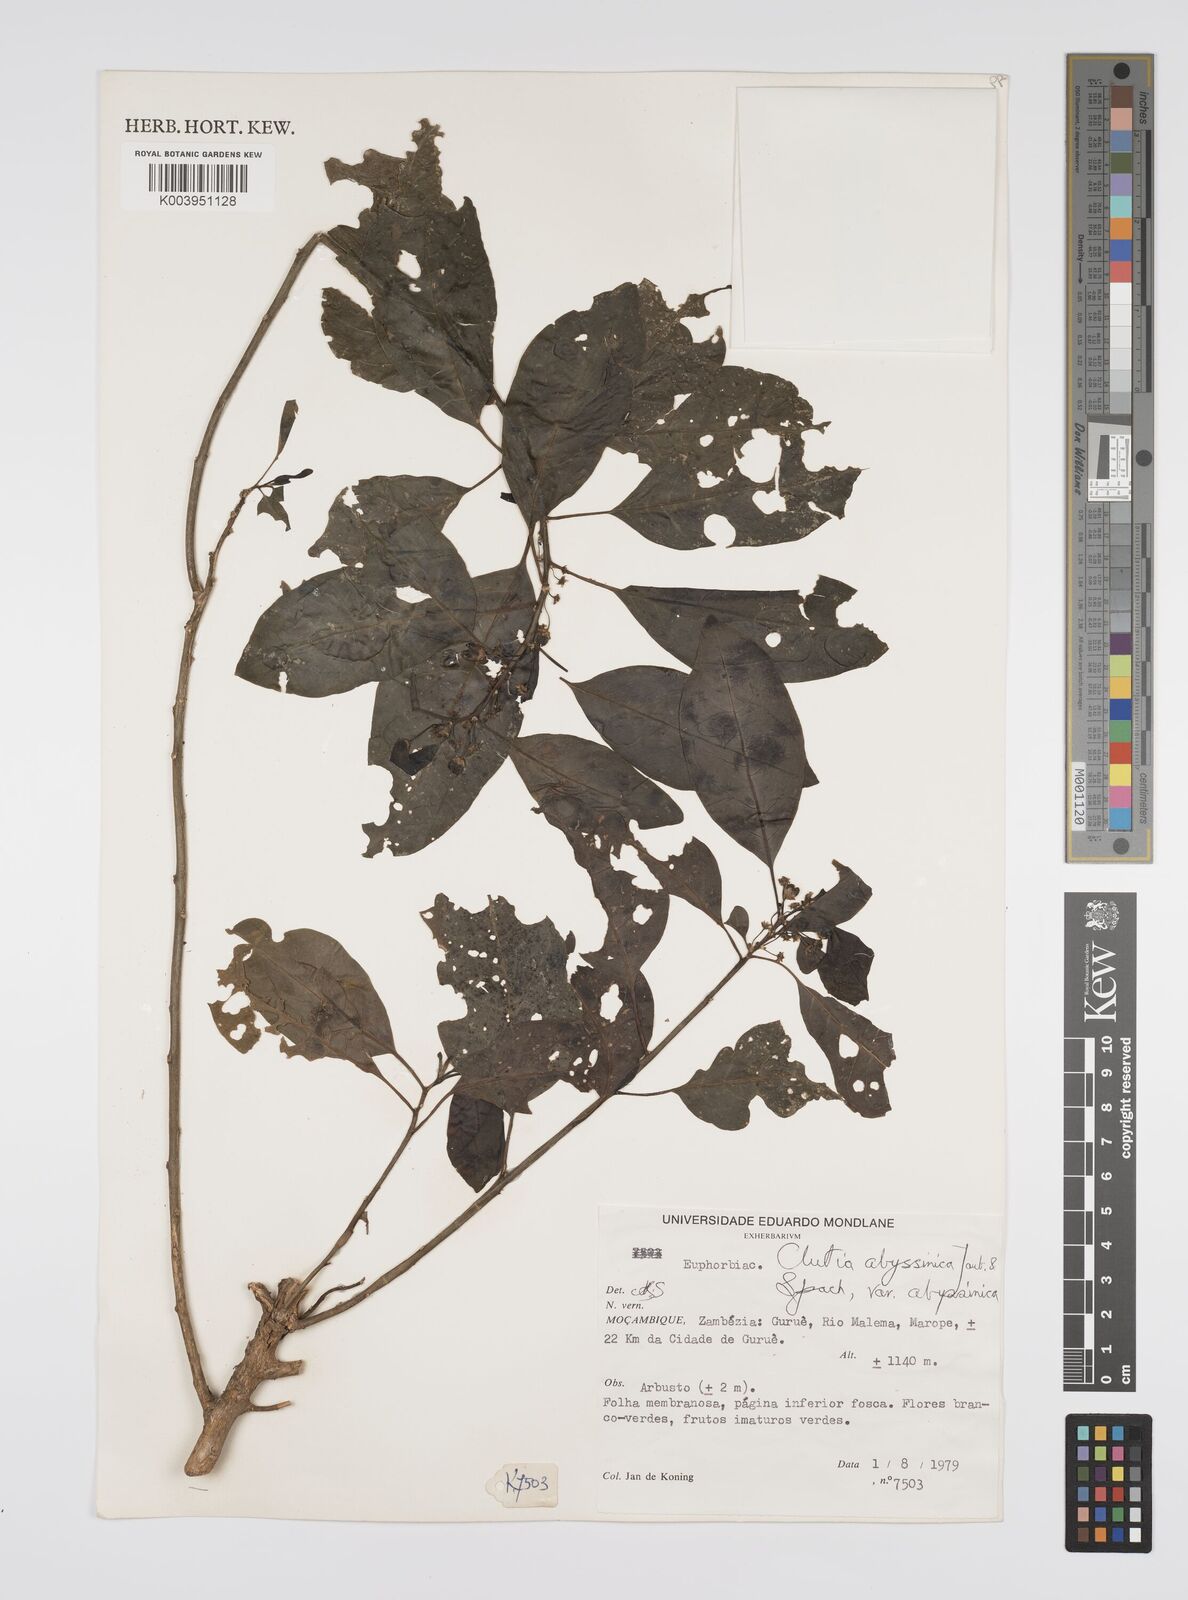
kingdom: Plantae
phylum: Tracheophyta
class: Magnoliopsida
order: Malpighiales
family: Peraceae
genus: Clutia
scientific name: Clutia abyssinica
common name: Large lightning bush
